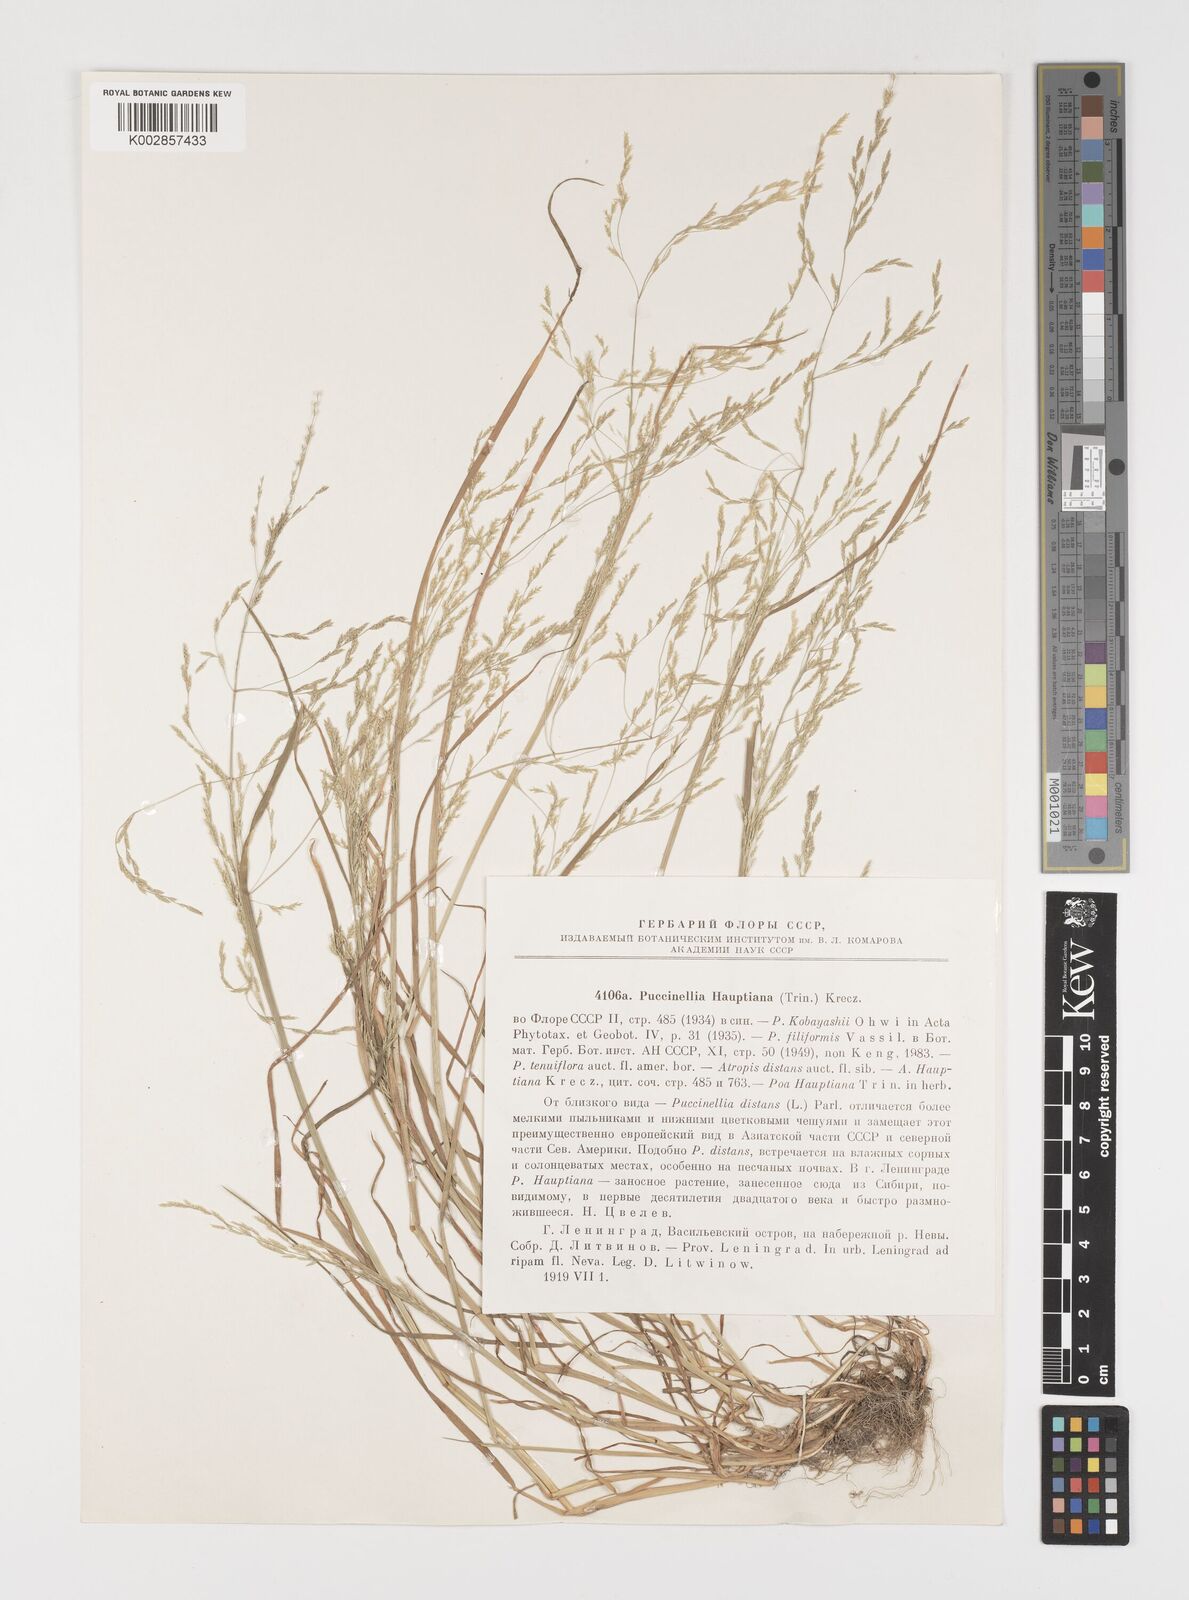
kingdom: Plantae
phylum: Tracheophyta
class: Liliopsida
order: Poales
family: Poaceae
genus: Puccinellia
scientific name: Puccinellia distans
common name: Weeping alkaligrass
